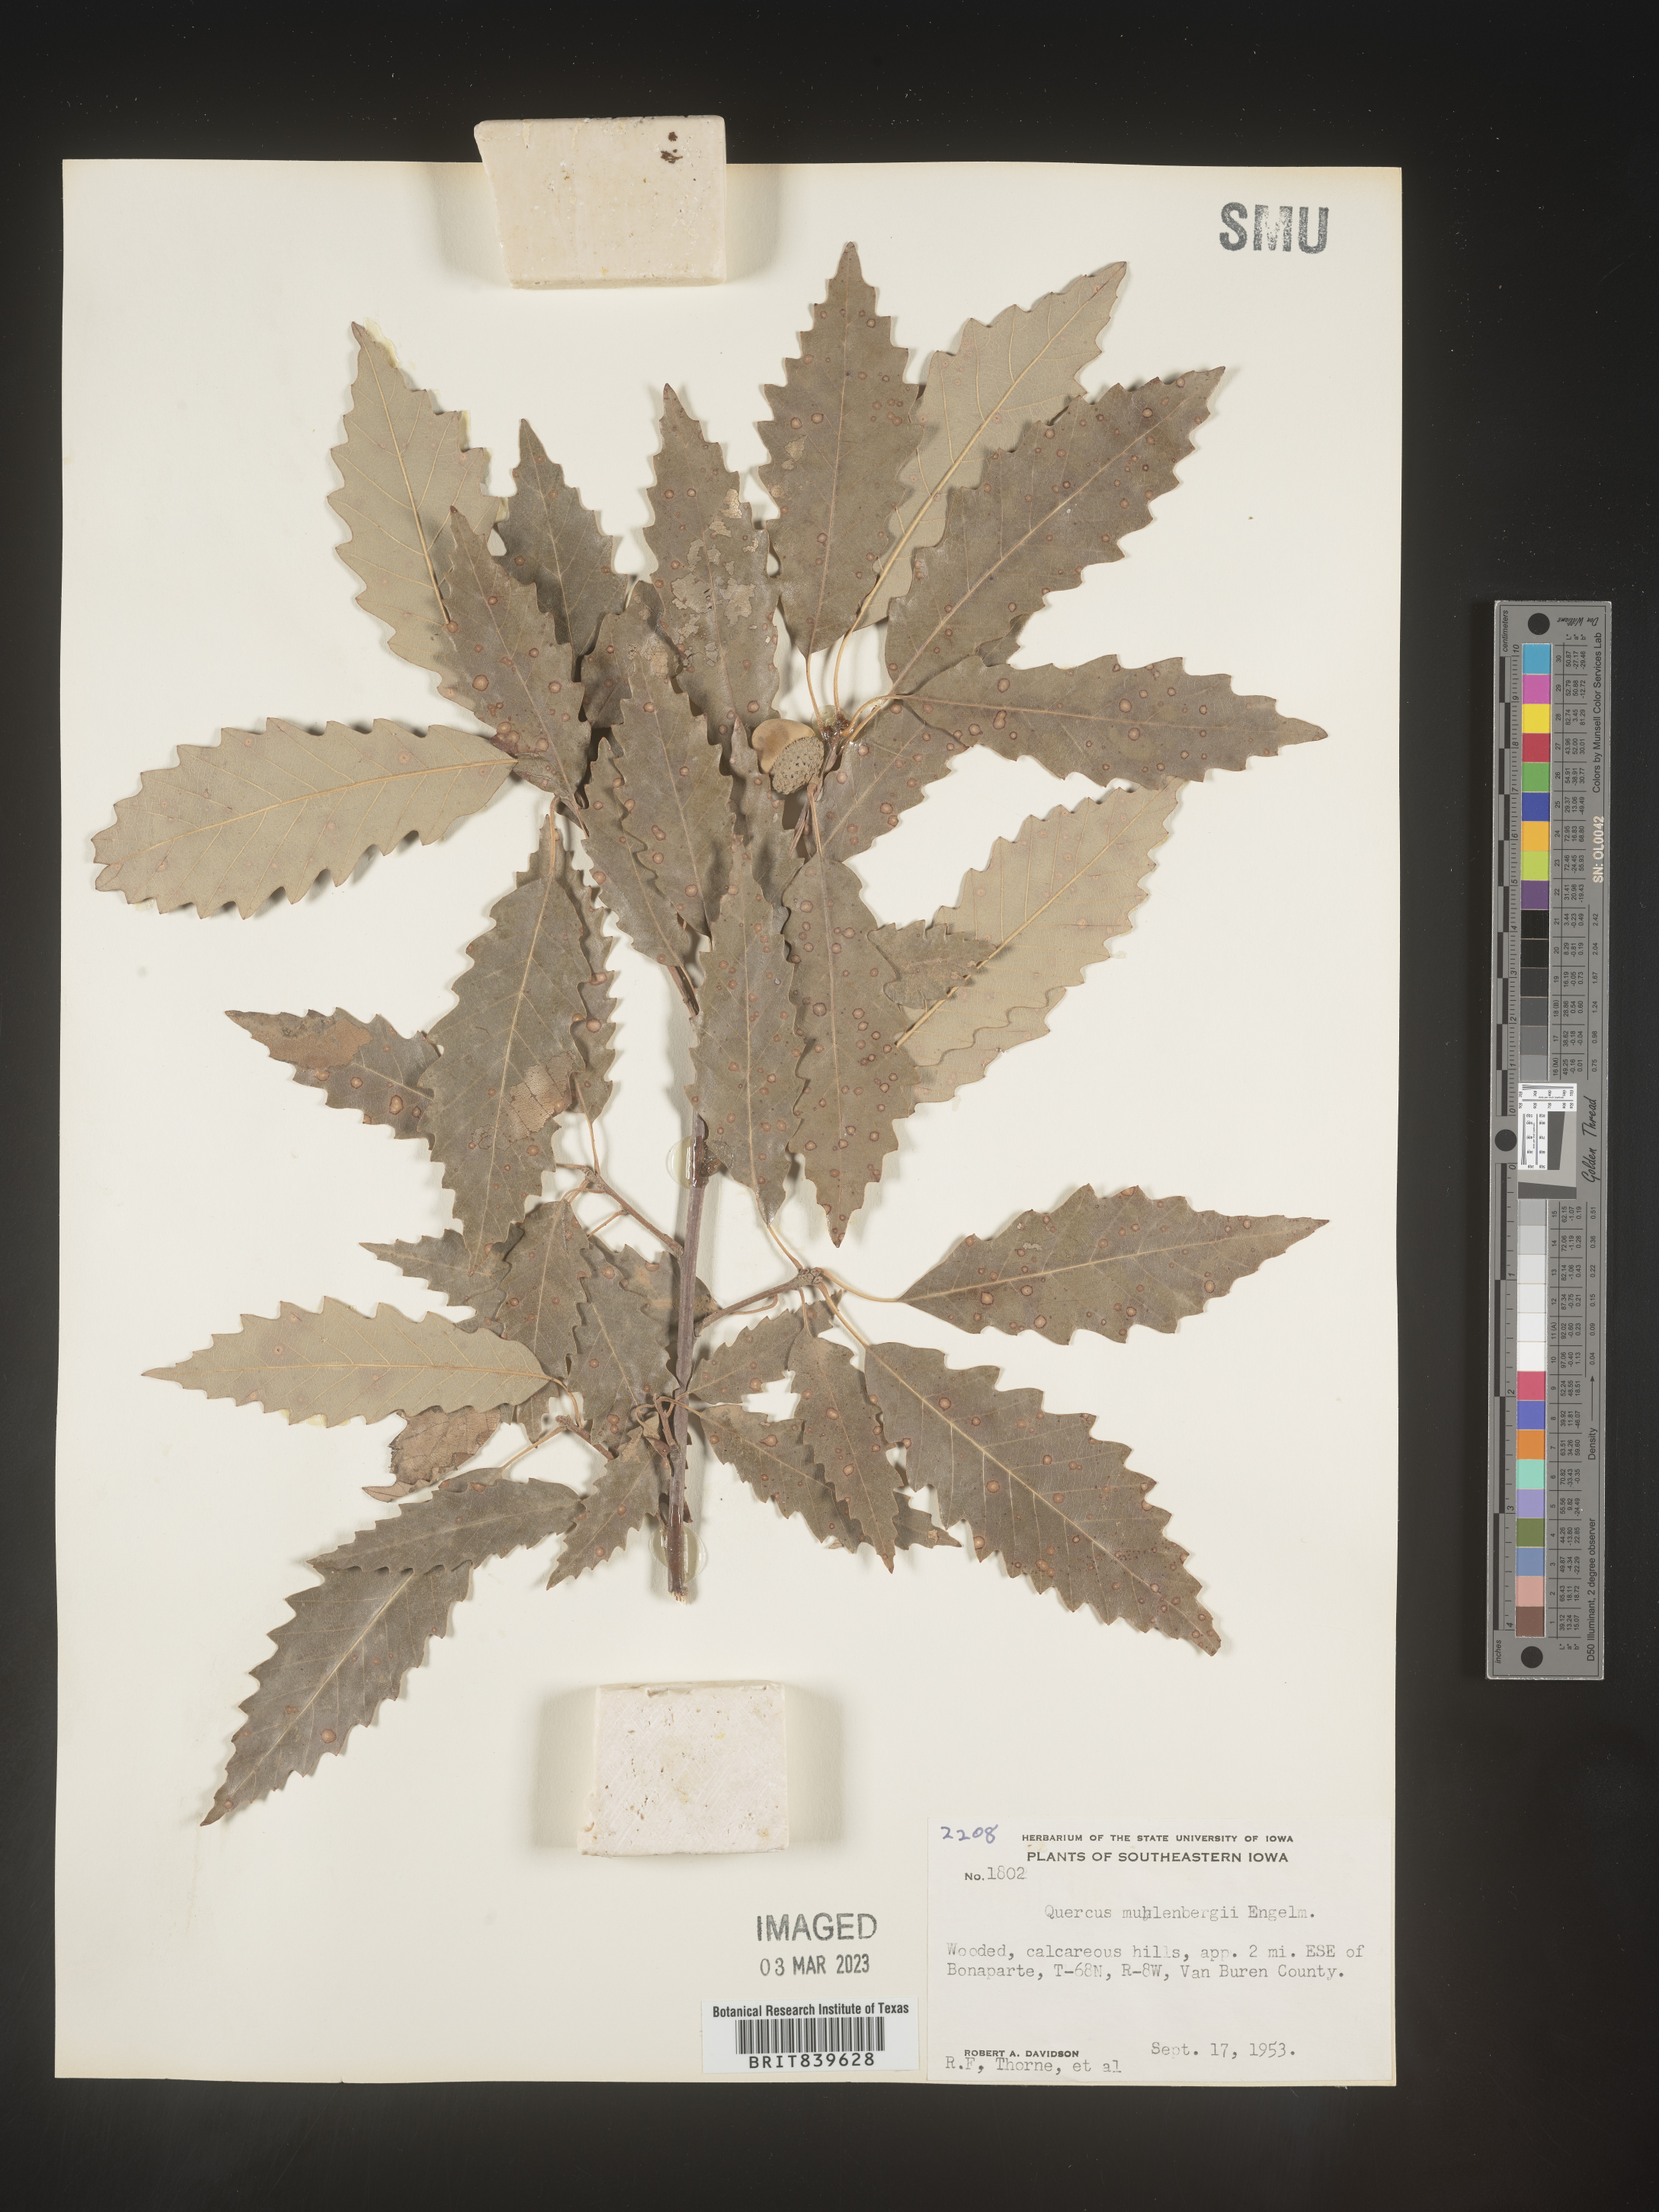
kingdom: Plantae
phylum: Tracheophyta
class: Magnoliopsida
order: Fagales
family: Fagaceae
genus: Quercus
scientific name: Quercus muehlenbergii
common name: Chinkapin oak
